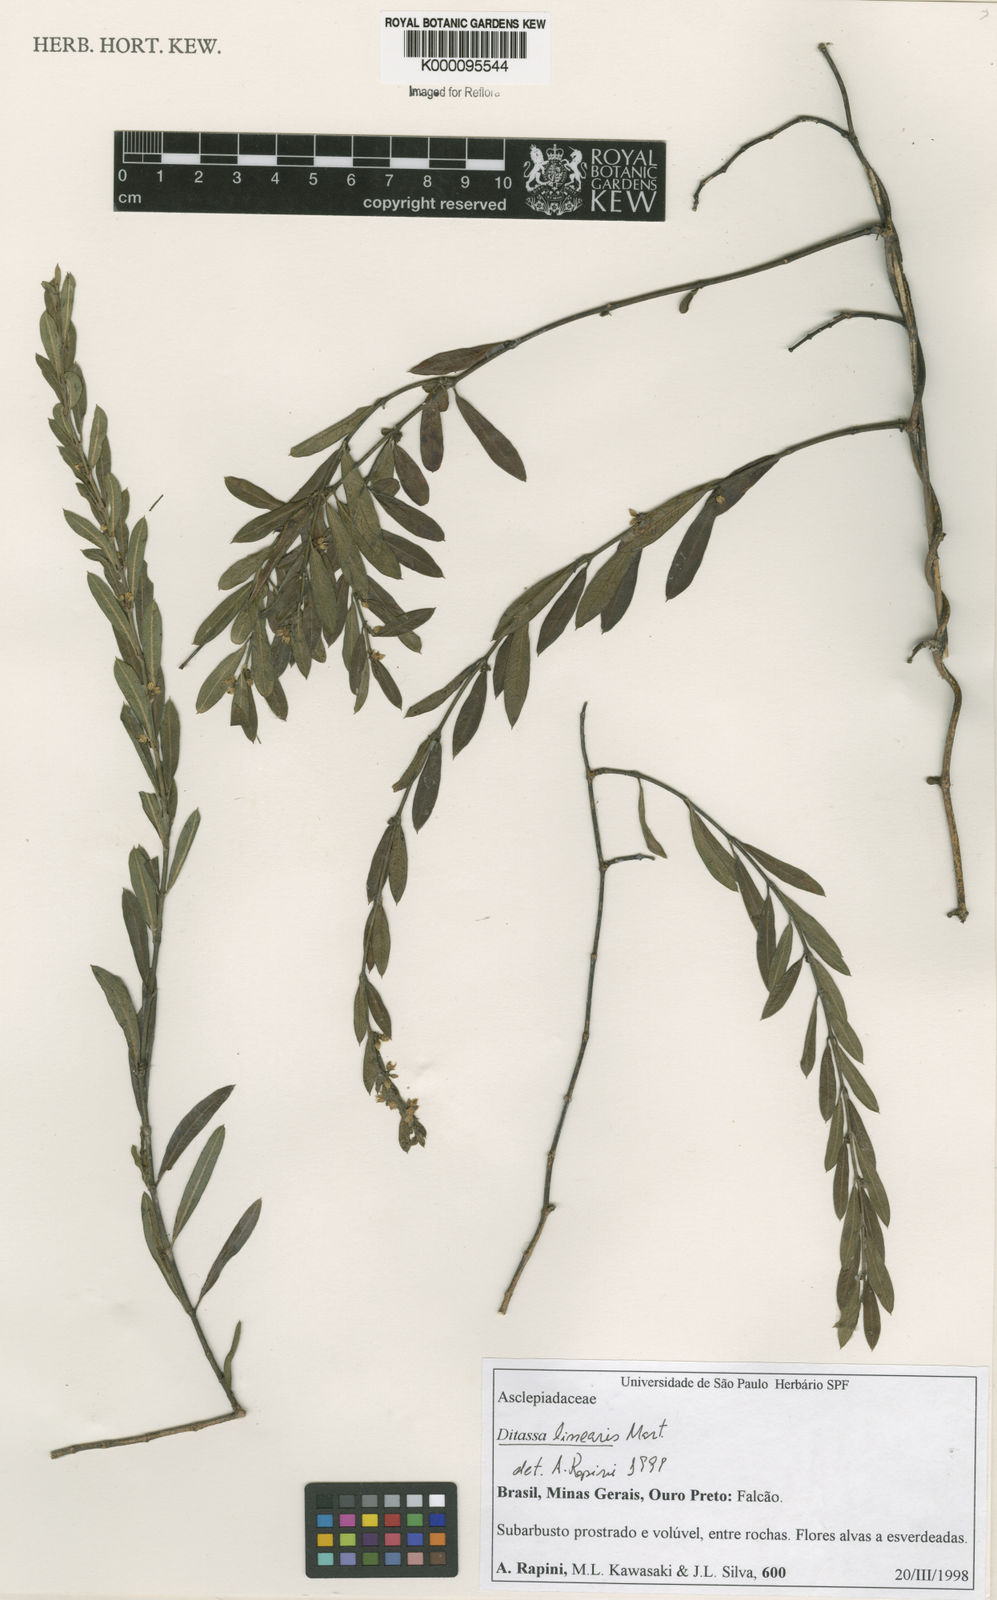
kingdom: Plantae
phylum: Tracheophyta
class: Magnoliopsida
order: Gentianales
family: Apocynaceae
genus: Ditassa
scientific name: Ditassa linearis
